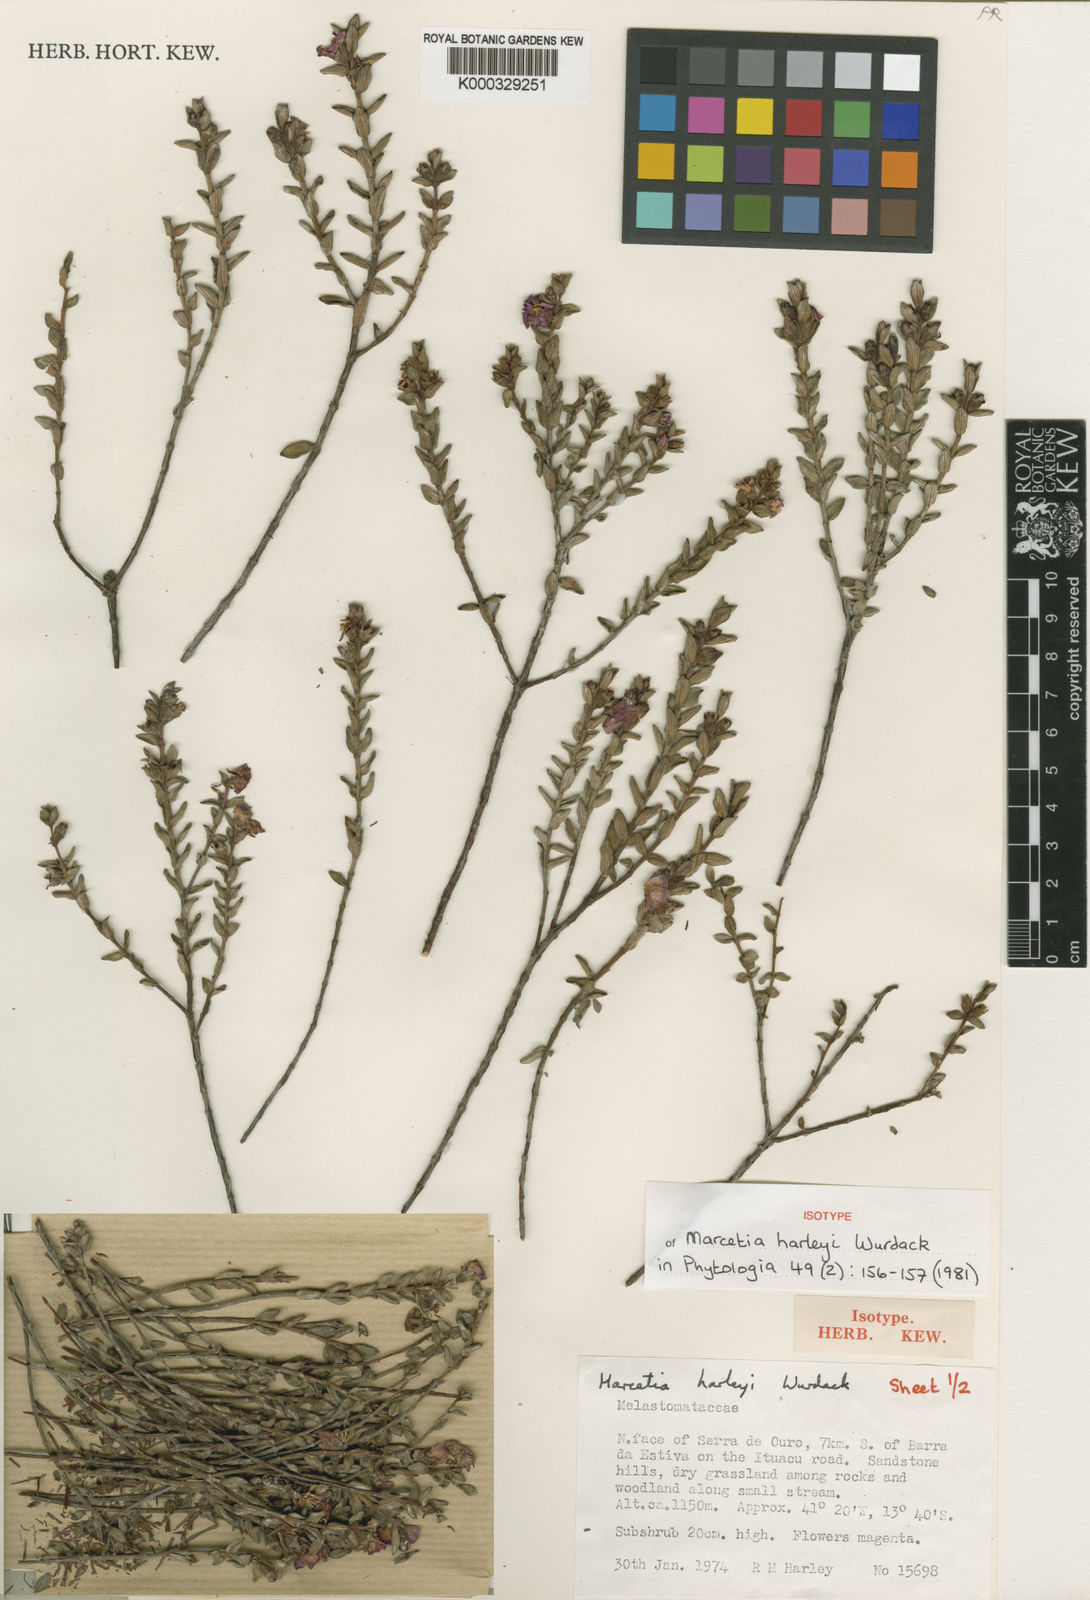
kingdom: Plantae
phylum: Tracheophyta
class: Magnoliopsida
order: Myrtales
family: Melastomataceae
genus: Marcetia
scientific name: Marcetia harleyi
